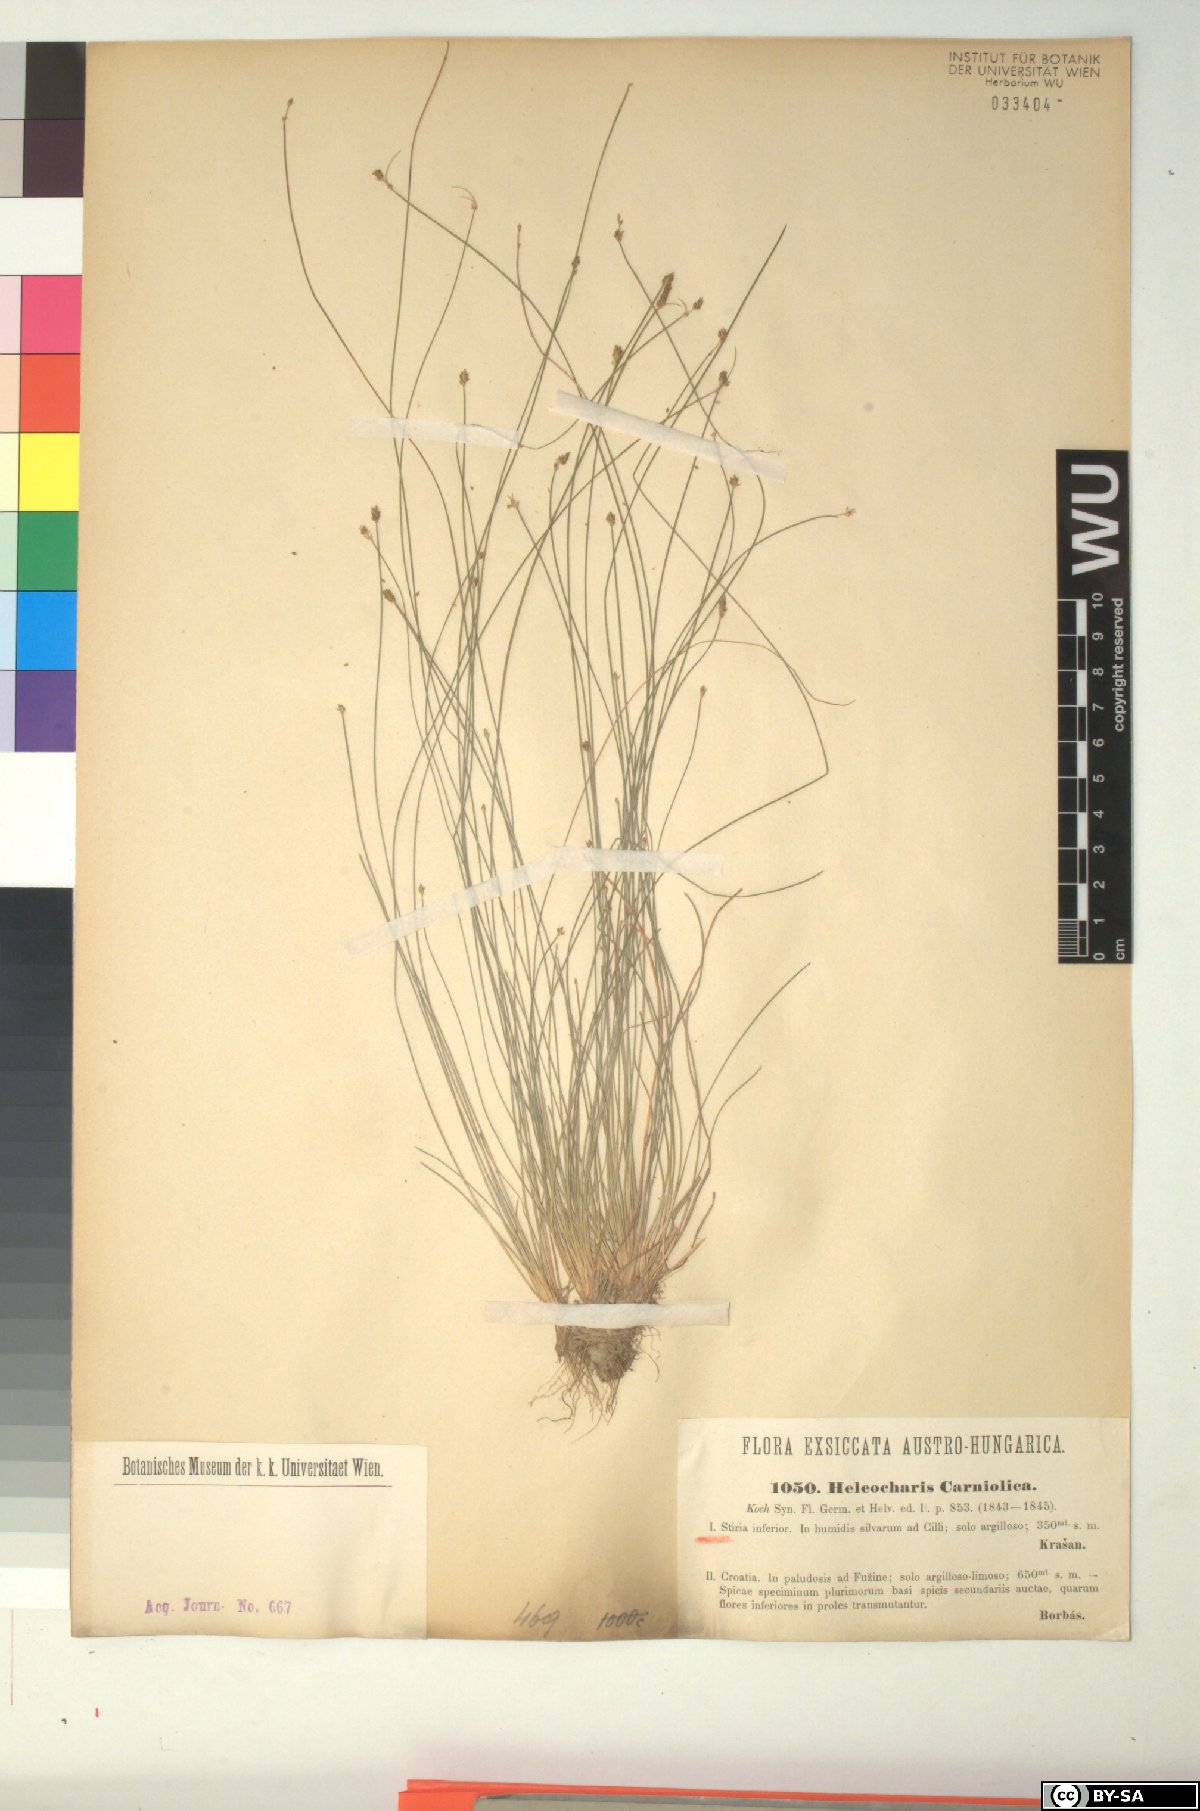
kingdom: Plantae
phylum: Tracheophyta
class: Liliopsida
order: Poales
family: Cyperaceae
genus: Eleocharis
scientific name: Eleocharis carniolica
